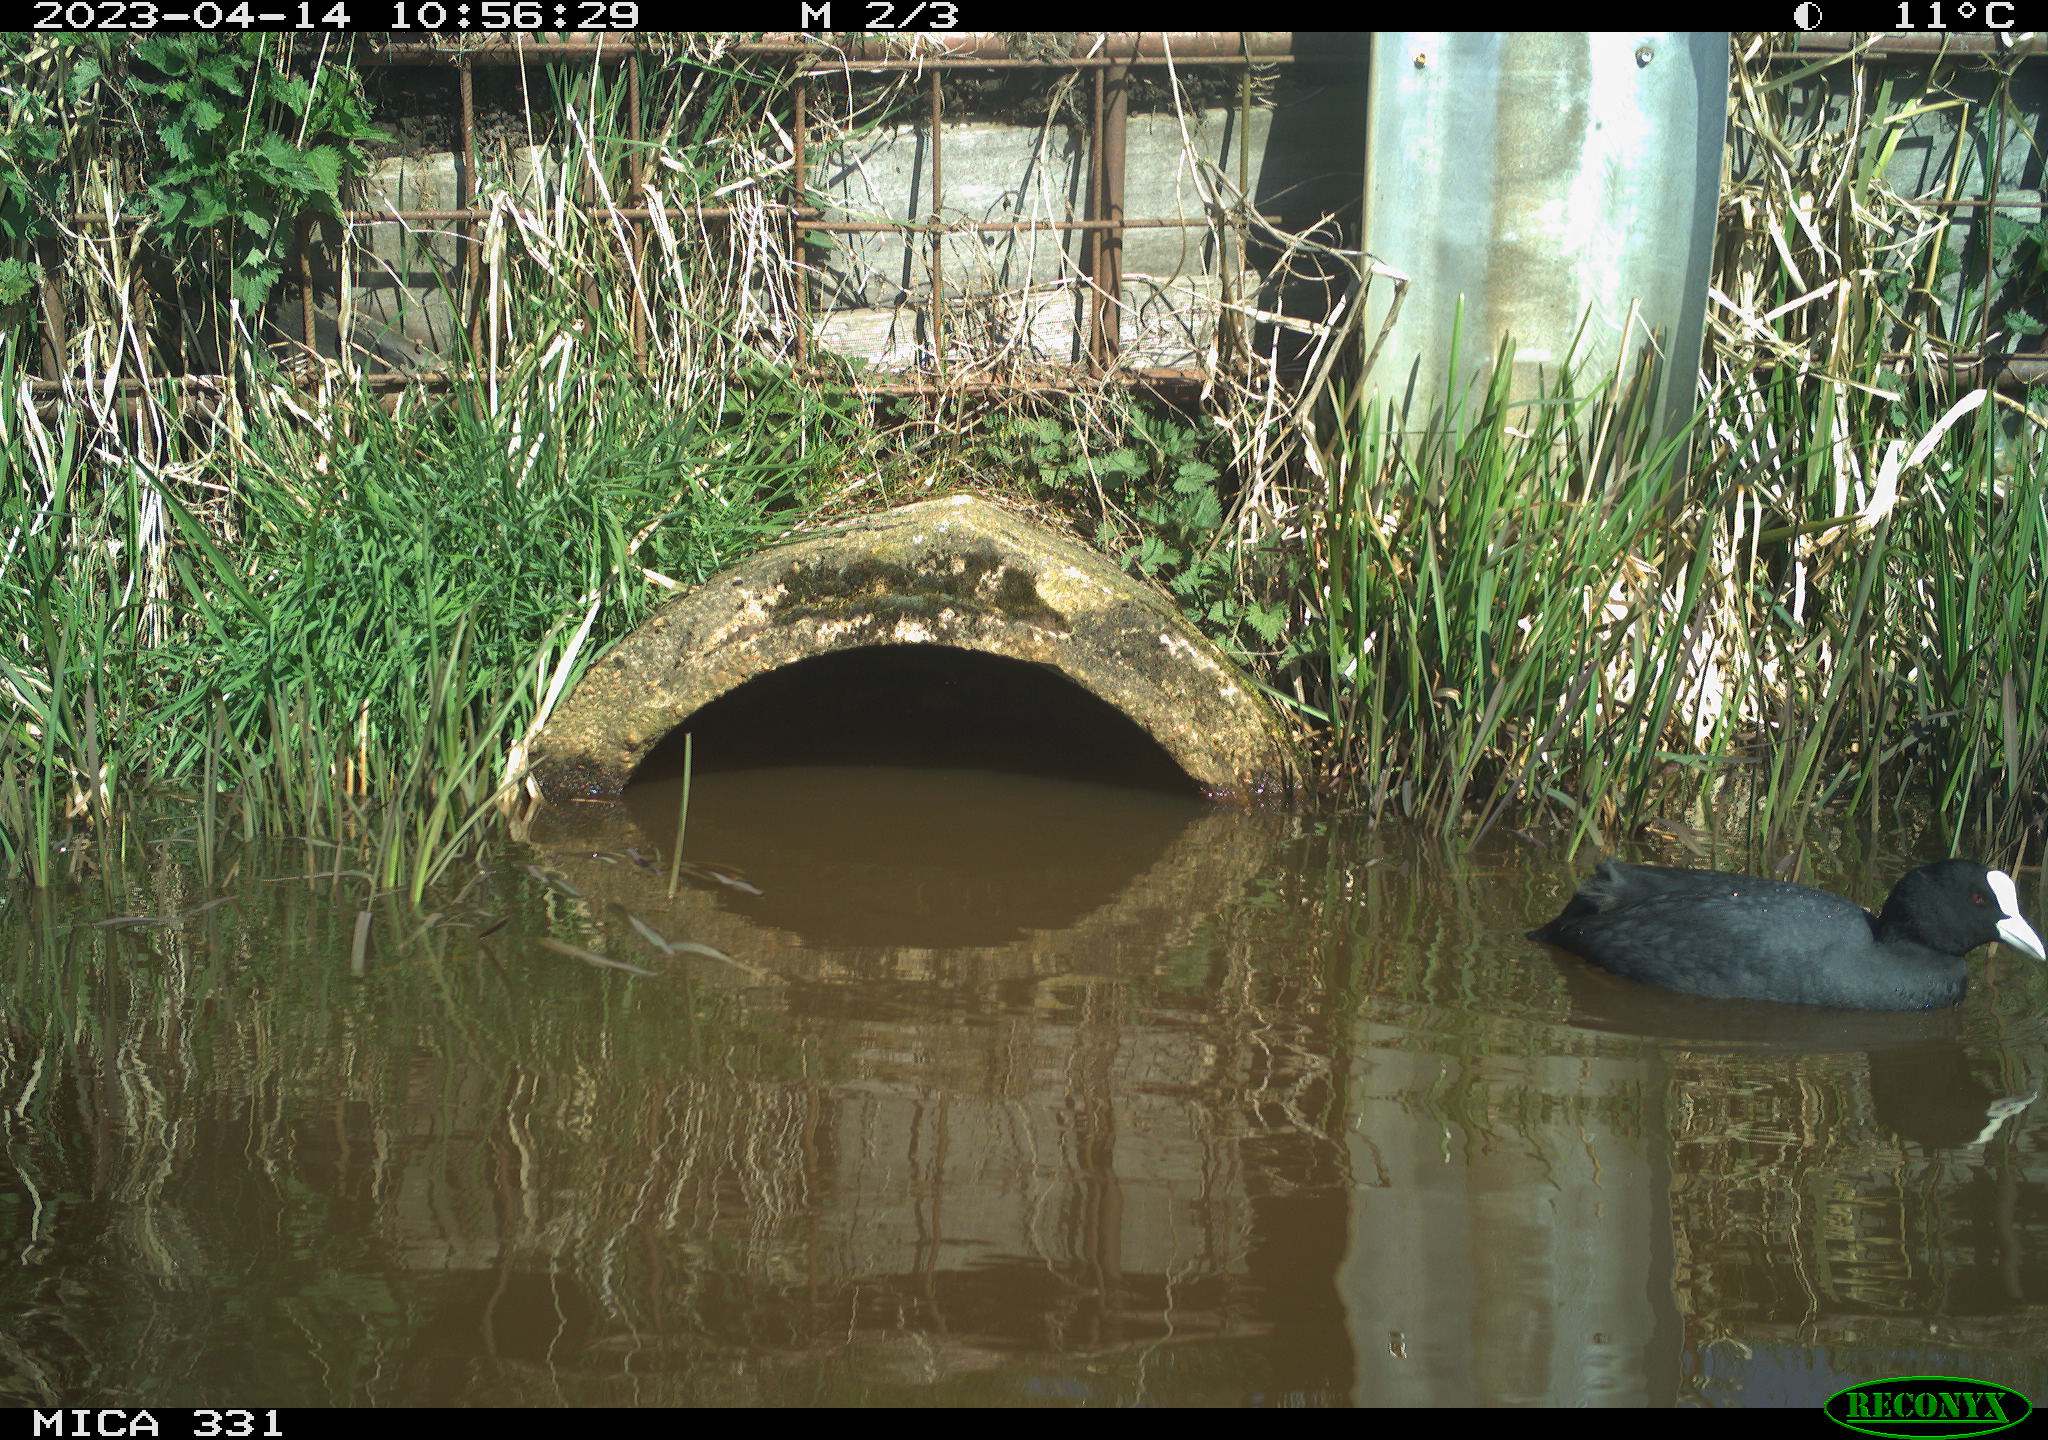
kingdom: Animalia
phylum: Chordata
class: Aves
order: Gruiformes
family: Rallidae
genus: Fulica
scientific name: Fulica atra
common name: Eurasian coot
